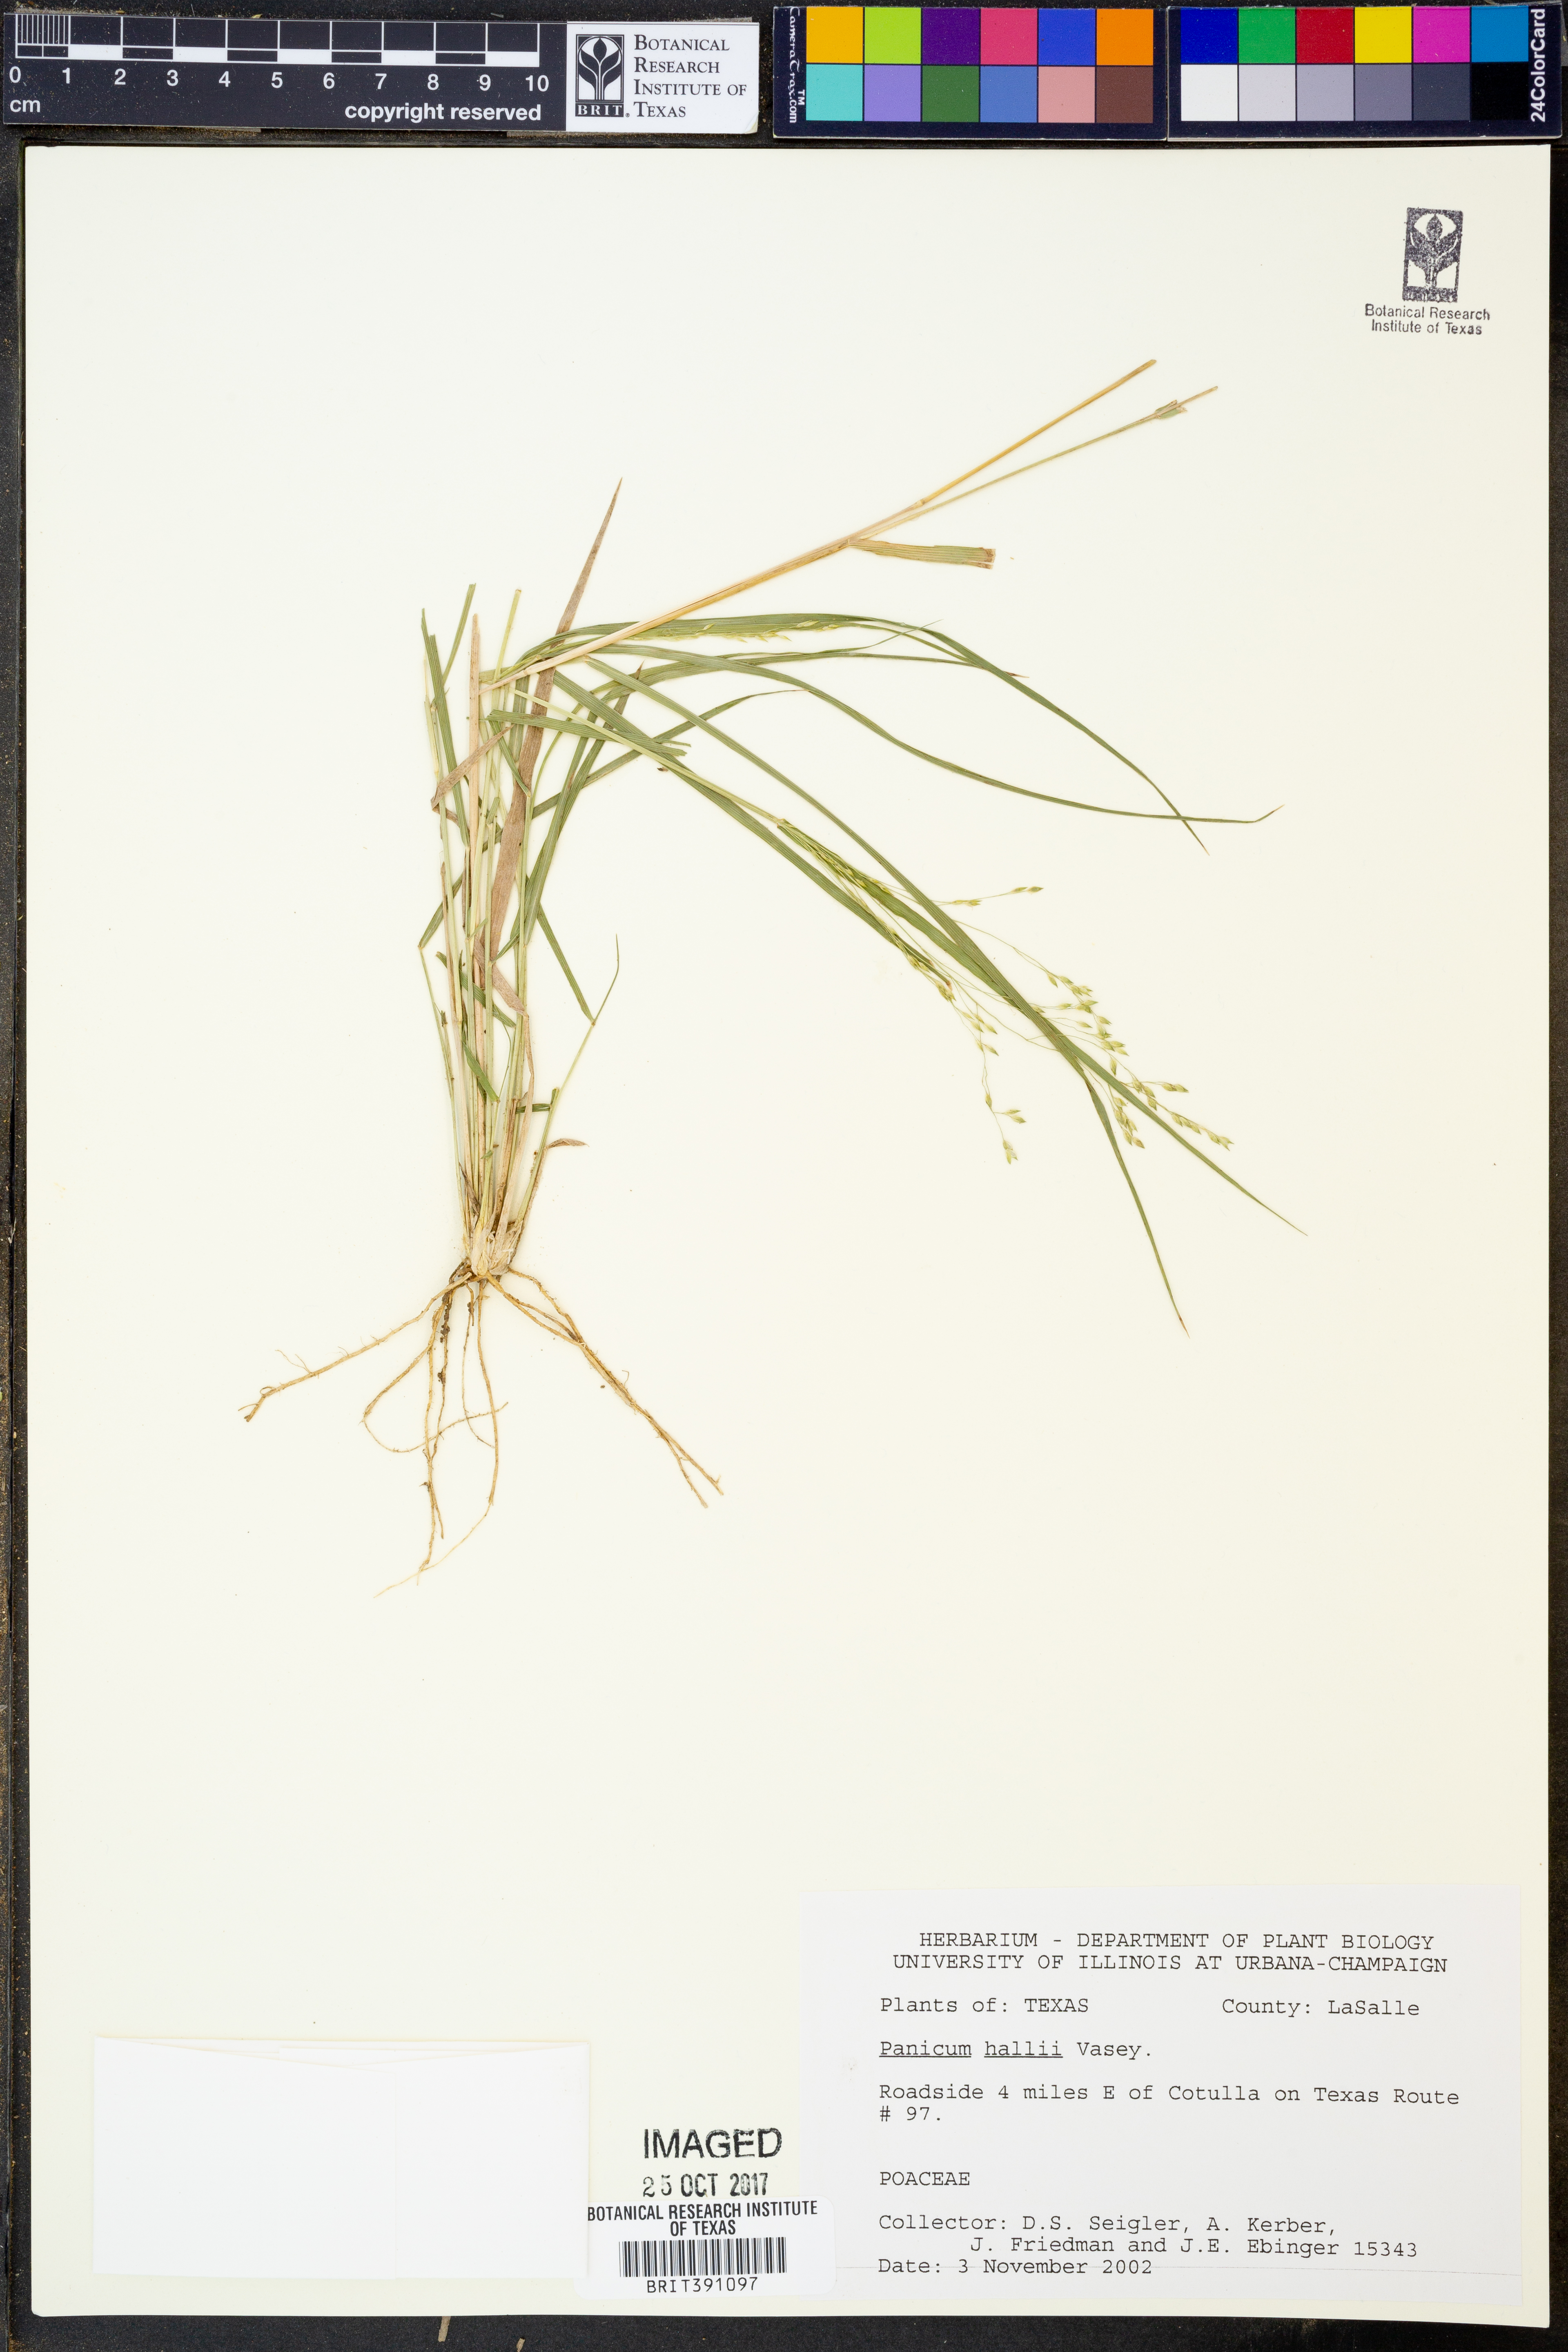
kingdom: Plantae
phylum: Tracheophyta
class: Liliopsida
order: Poales
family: Poaceae
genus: Panicum
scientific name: Panicum hallii
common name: Hall's witchgrass
